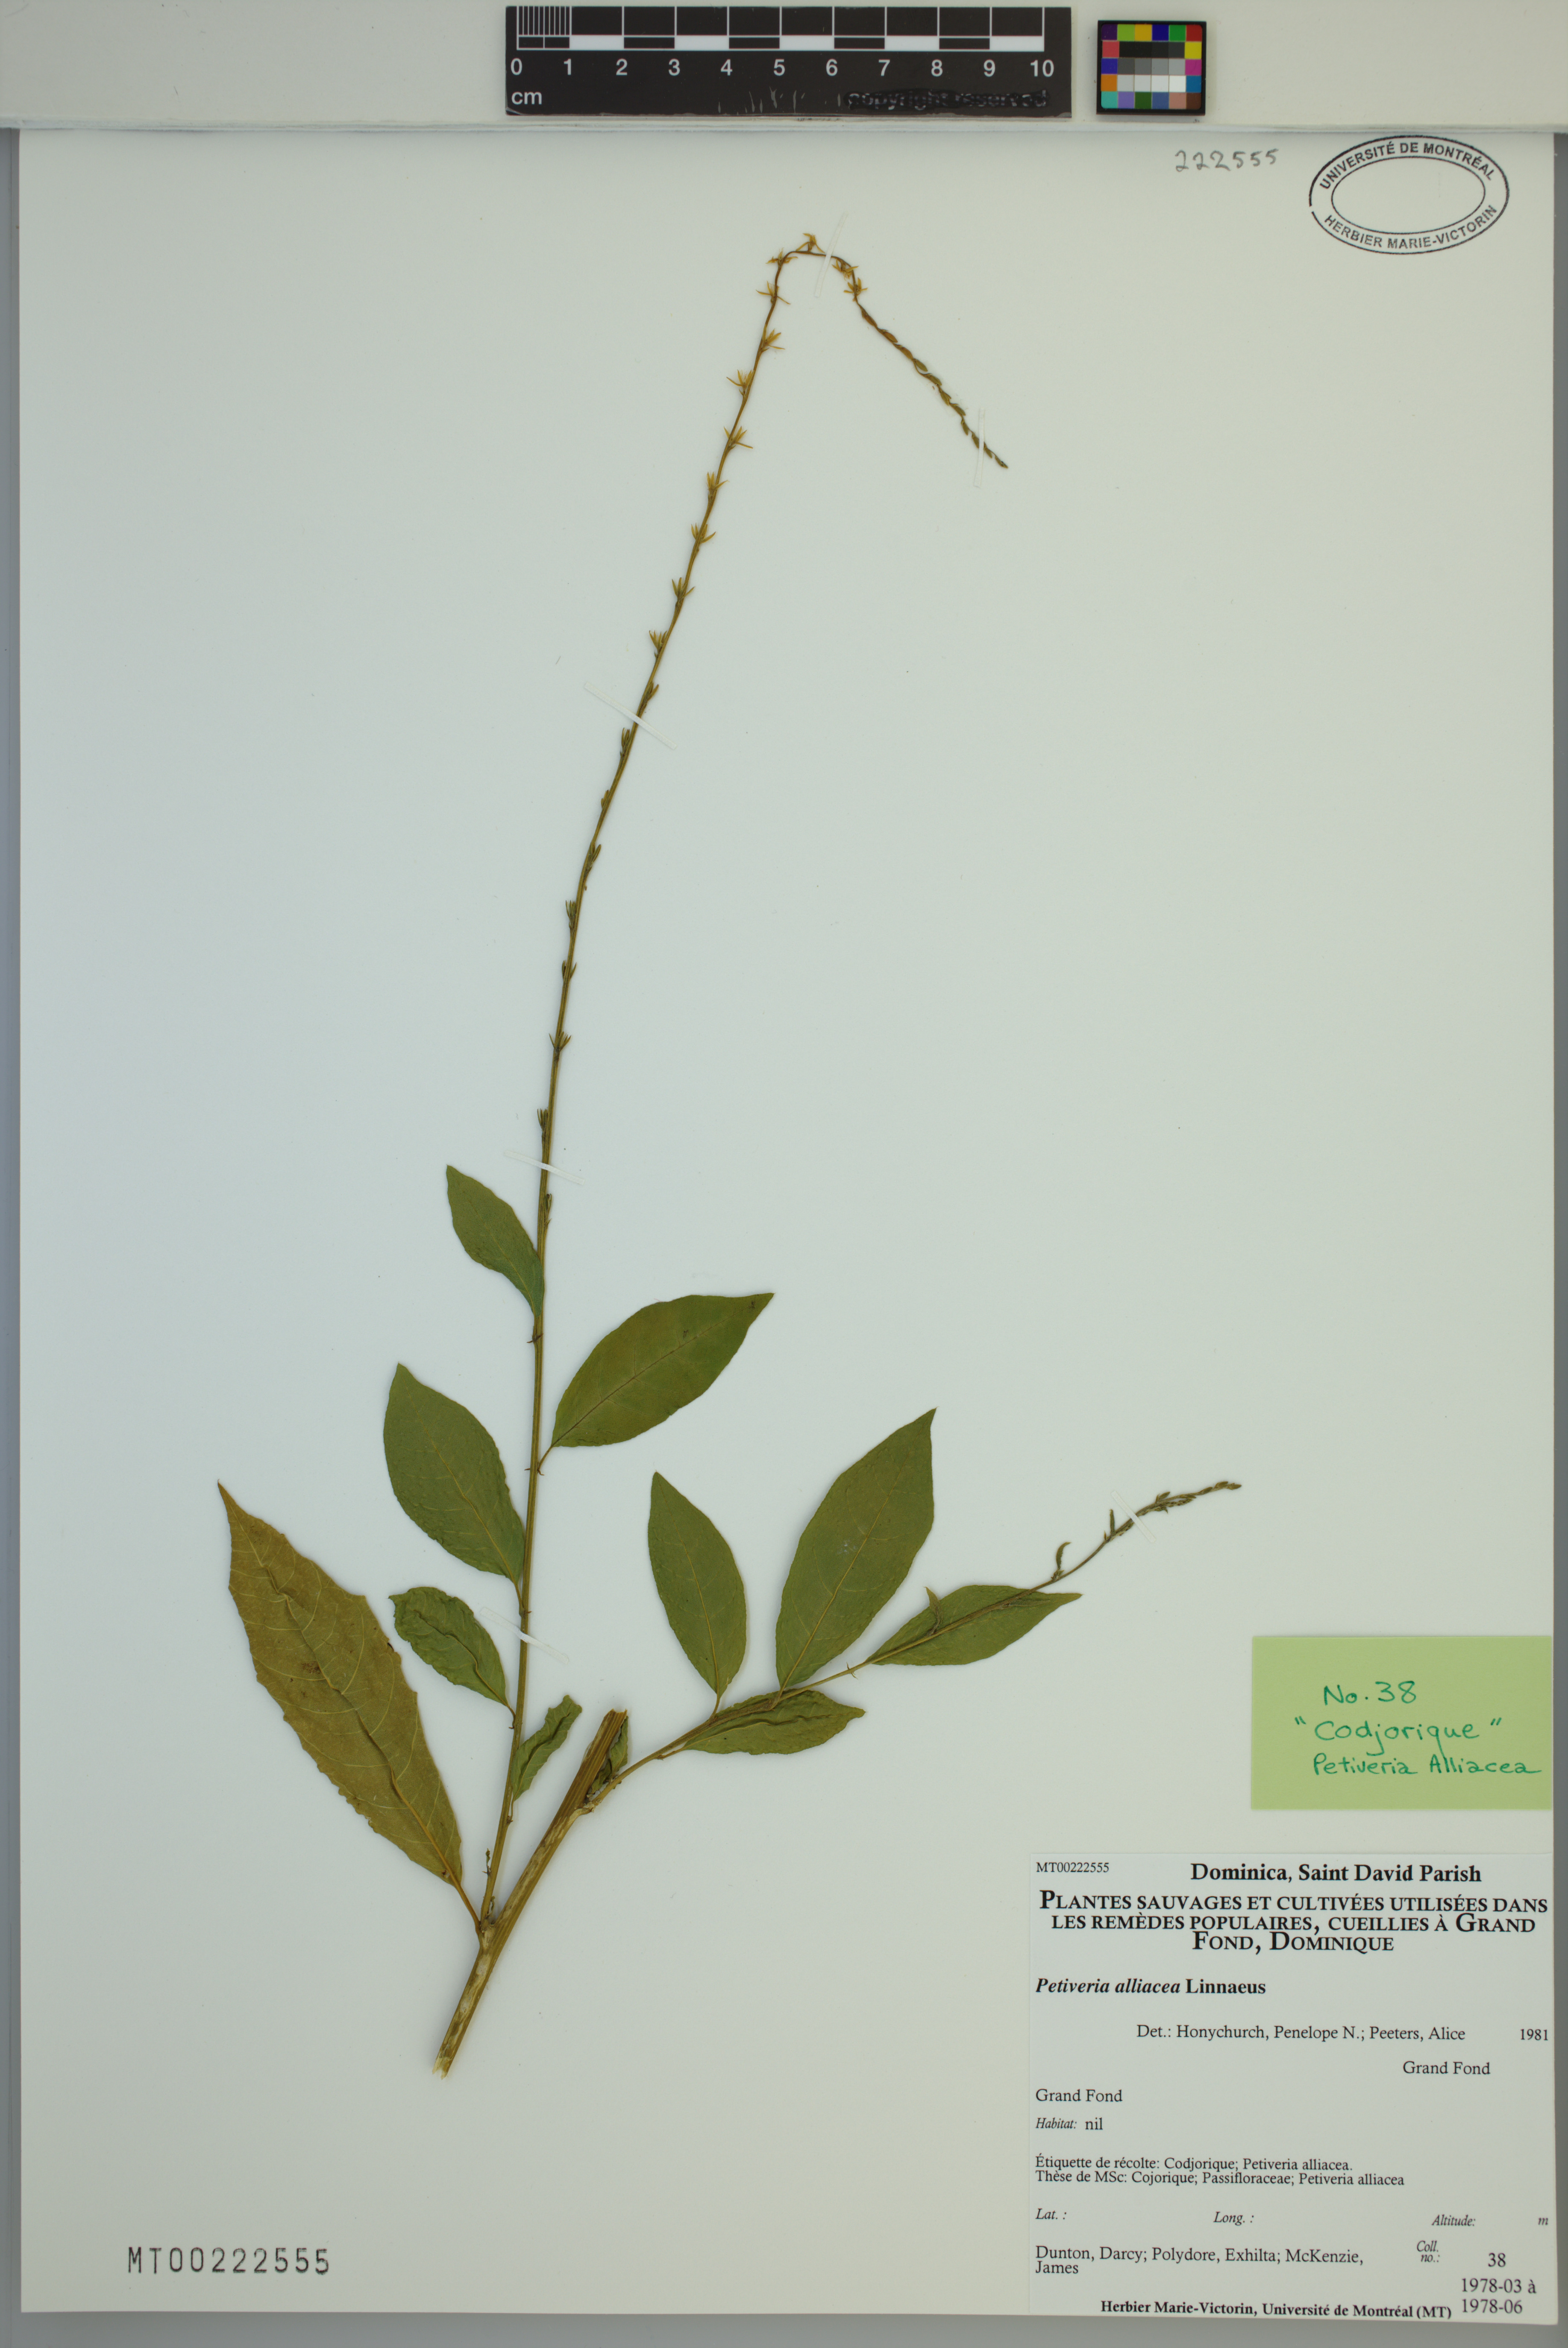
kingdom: Plantae
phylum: Tracheophyta
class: Magnoliopsida
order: Caryophyllales
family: Phytolaccaceae
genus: Petiveria
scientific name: Petiveria alliacea
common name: Garlicweed
